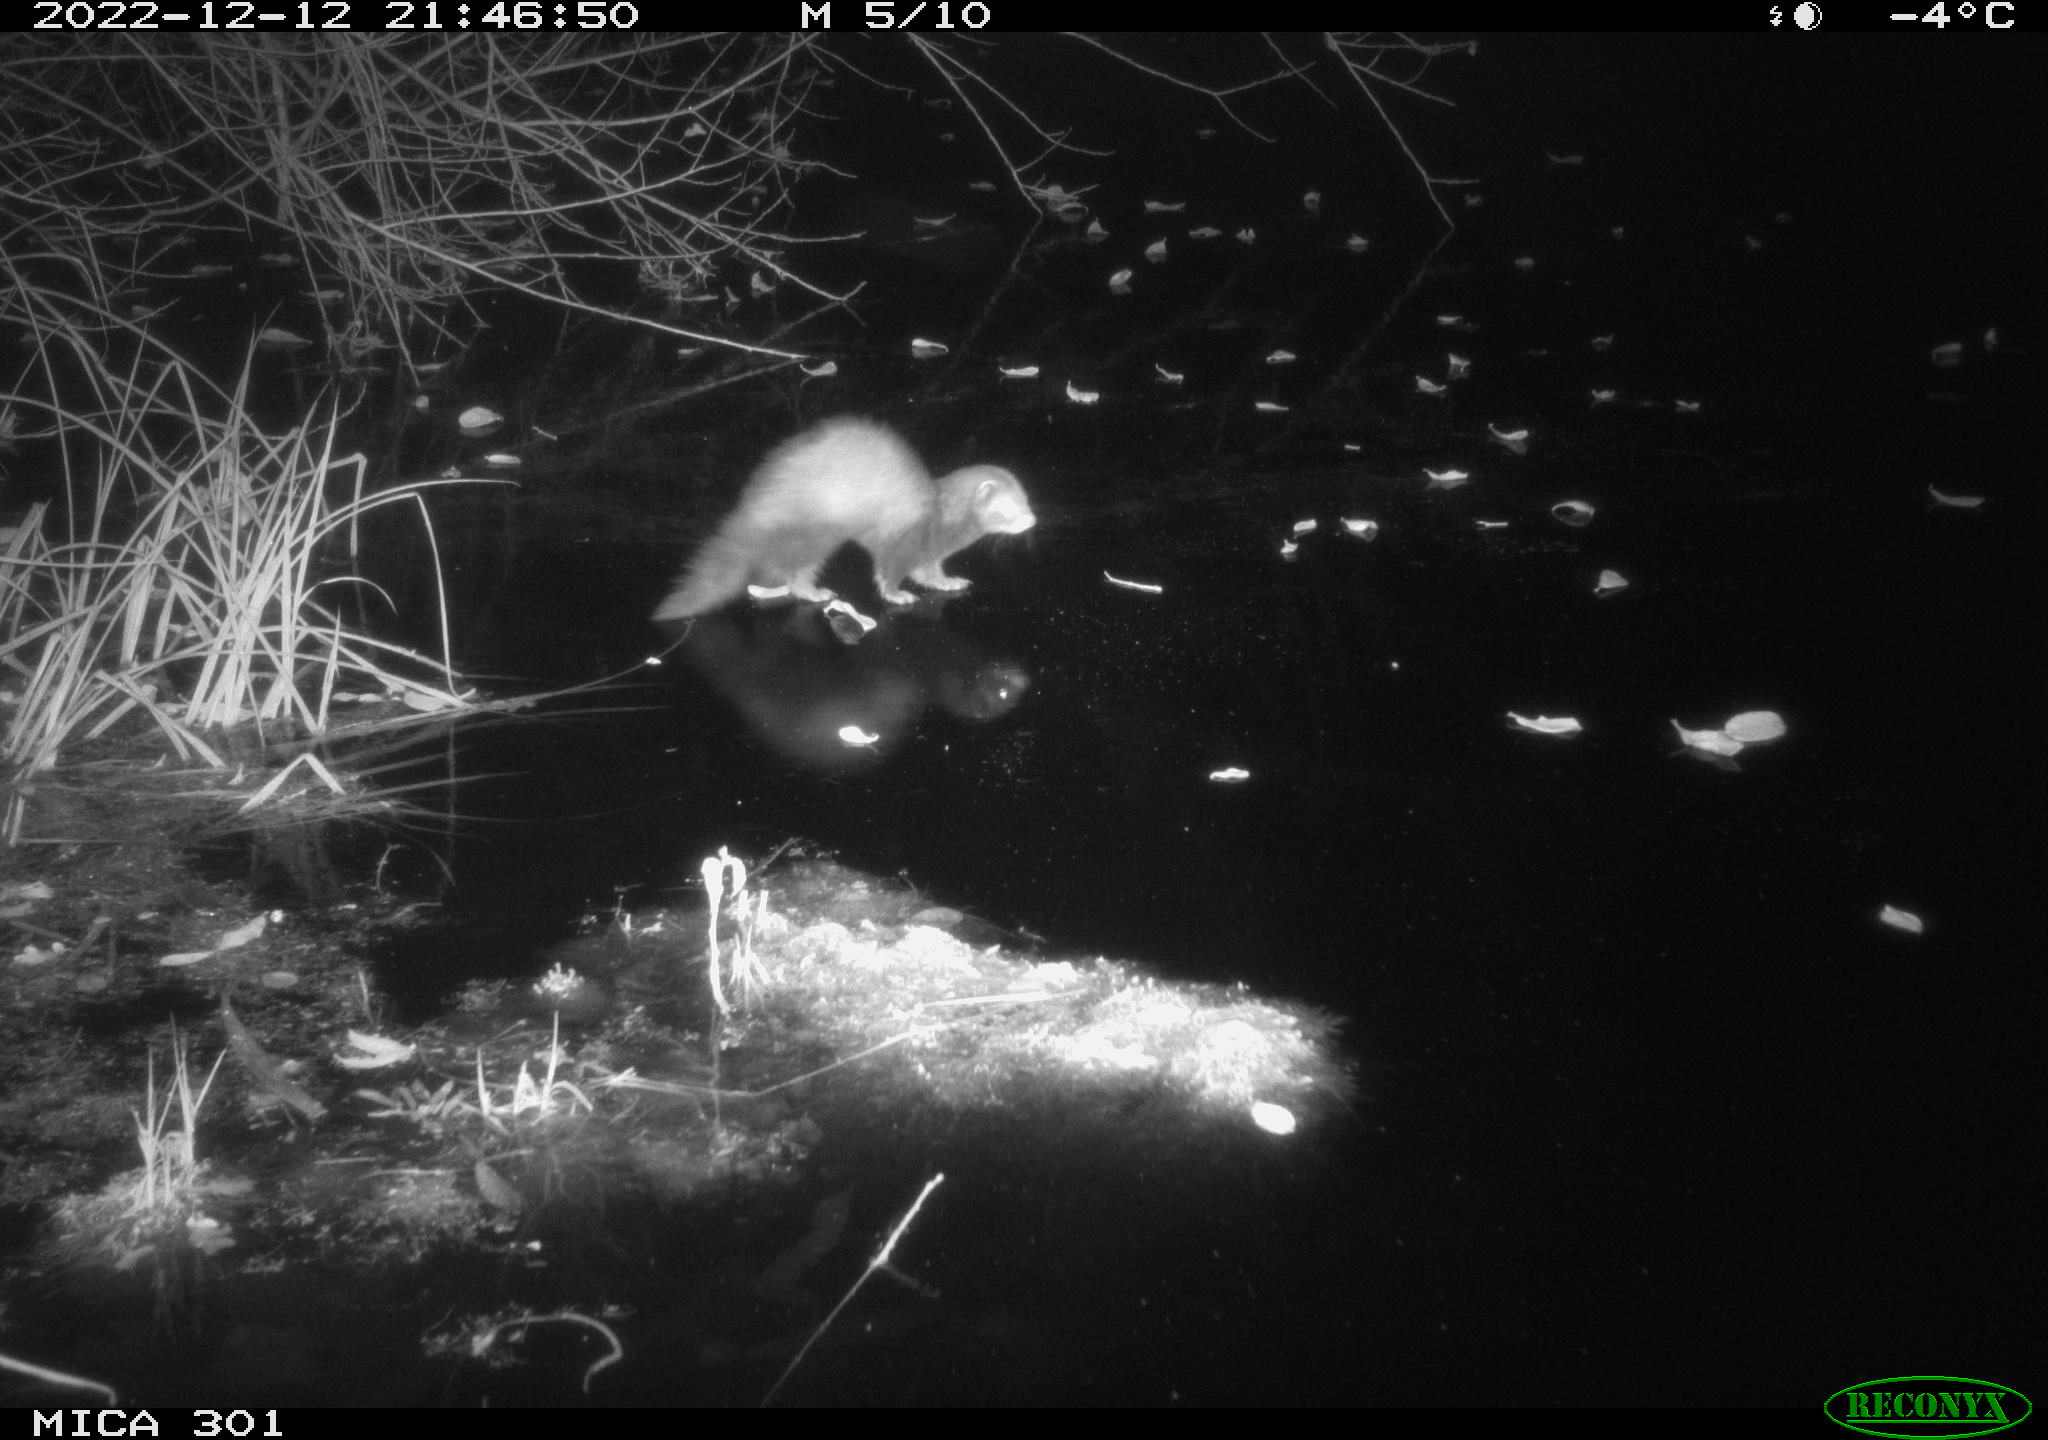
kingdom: Animalia
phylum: Chordata
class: Mammalia
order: Carnivora
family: Mustelidae
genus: Mustela
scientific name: Mustela putorius
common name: European polecat
